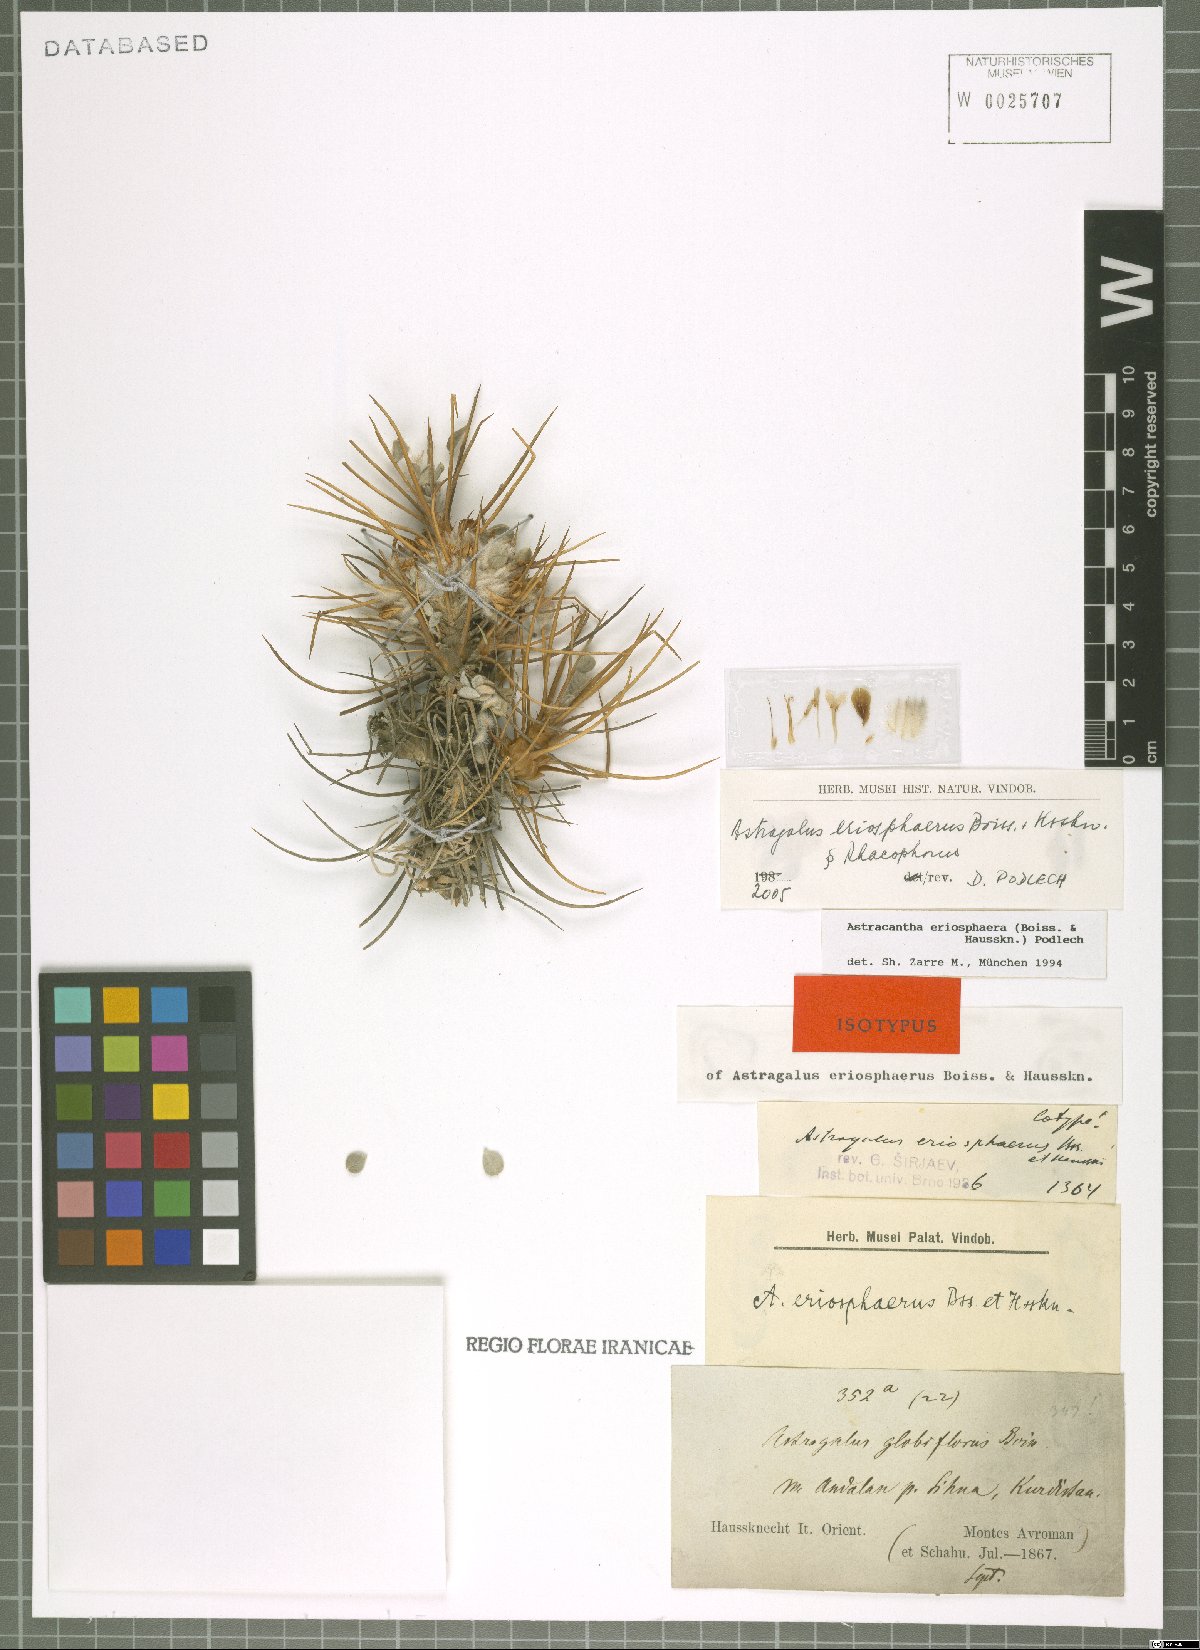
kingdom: Plantae
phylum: Tracheophyta
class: Magnoliopsida
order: Fabales
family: Fabaceae
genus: Astragalus
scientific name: Astragalus eriosphaerus
